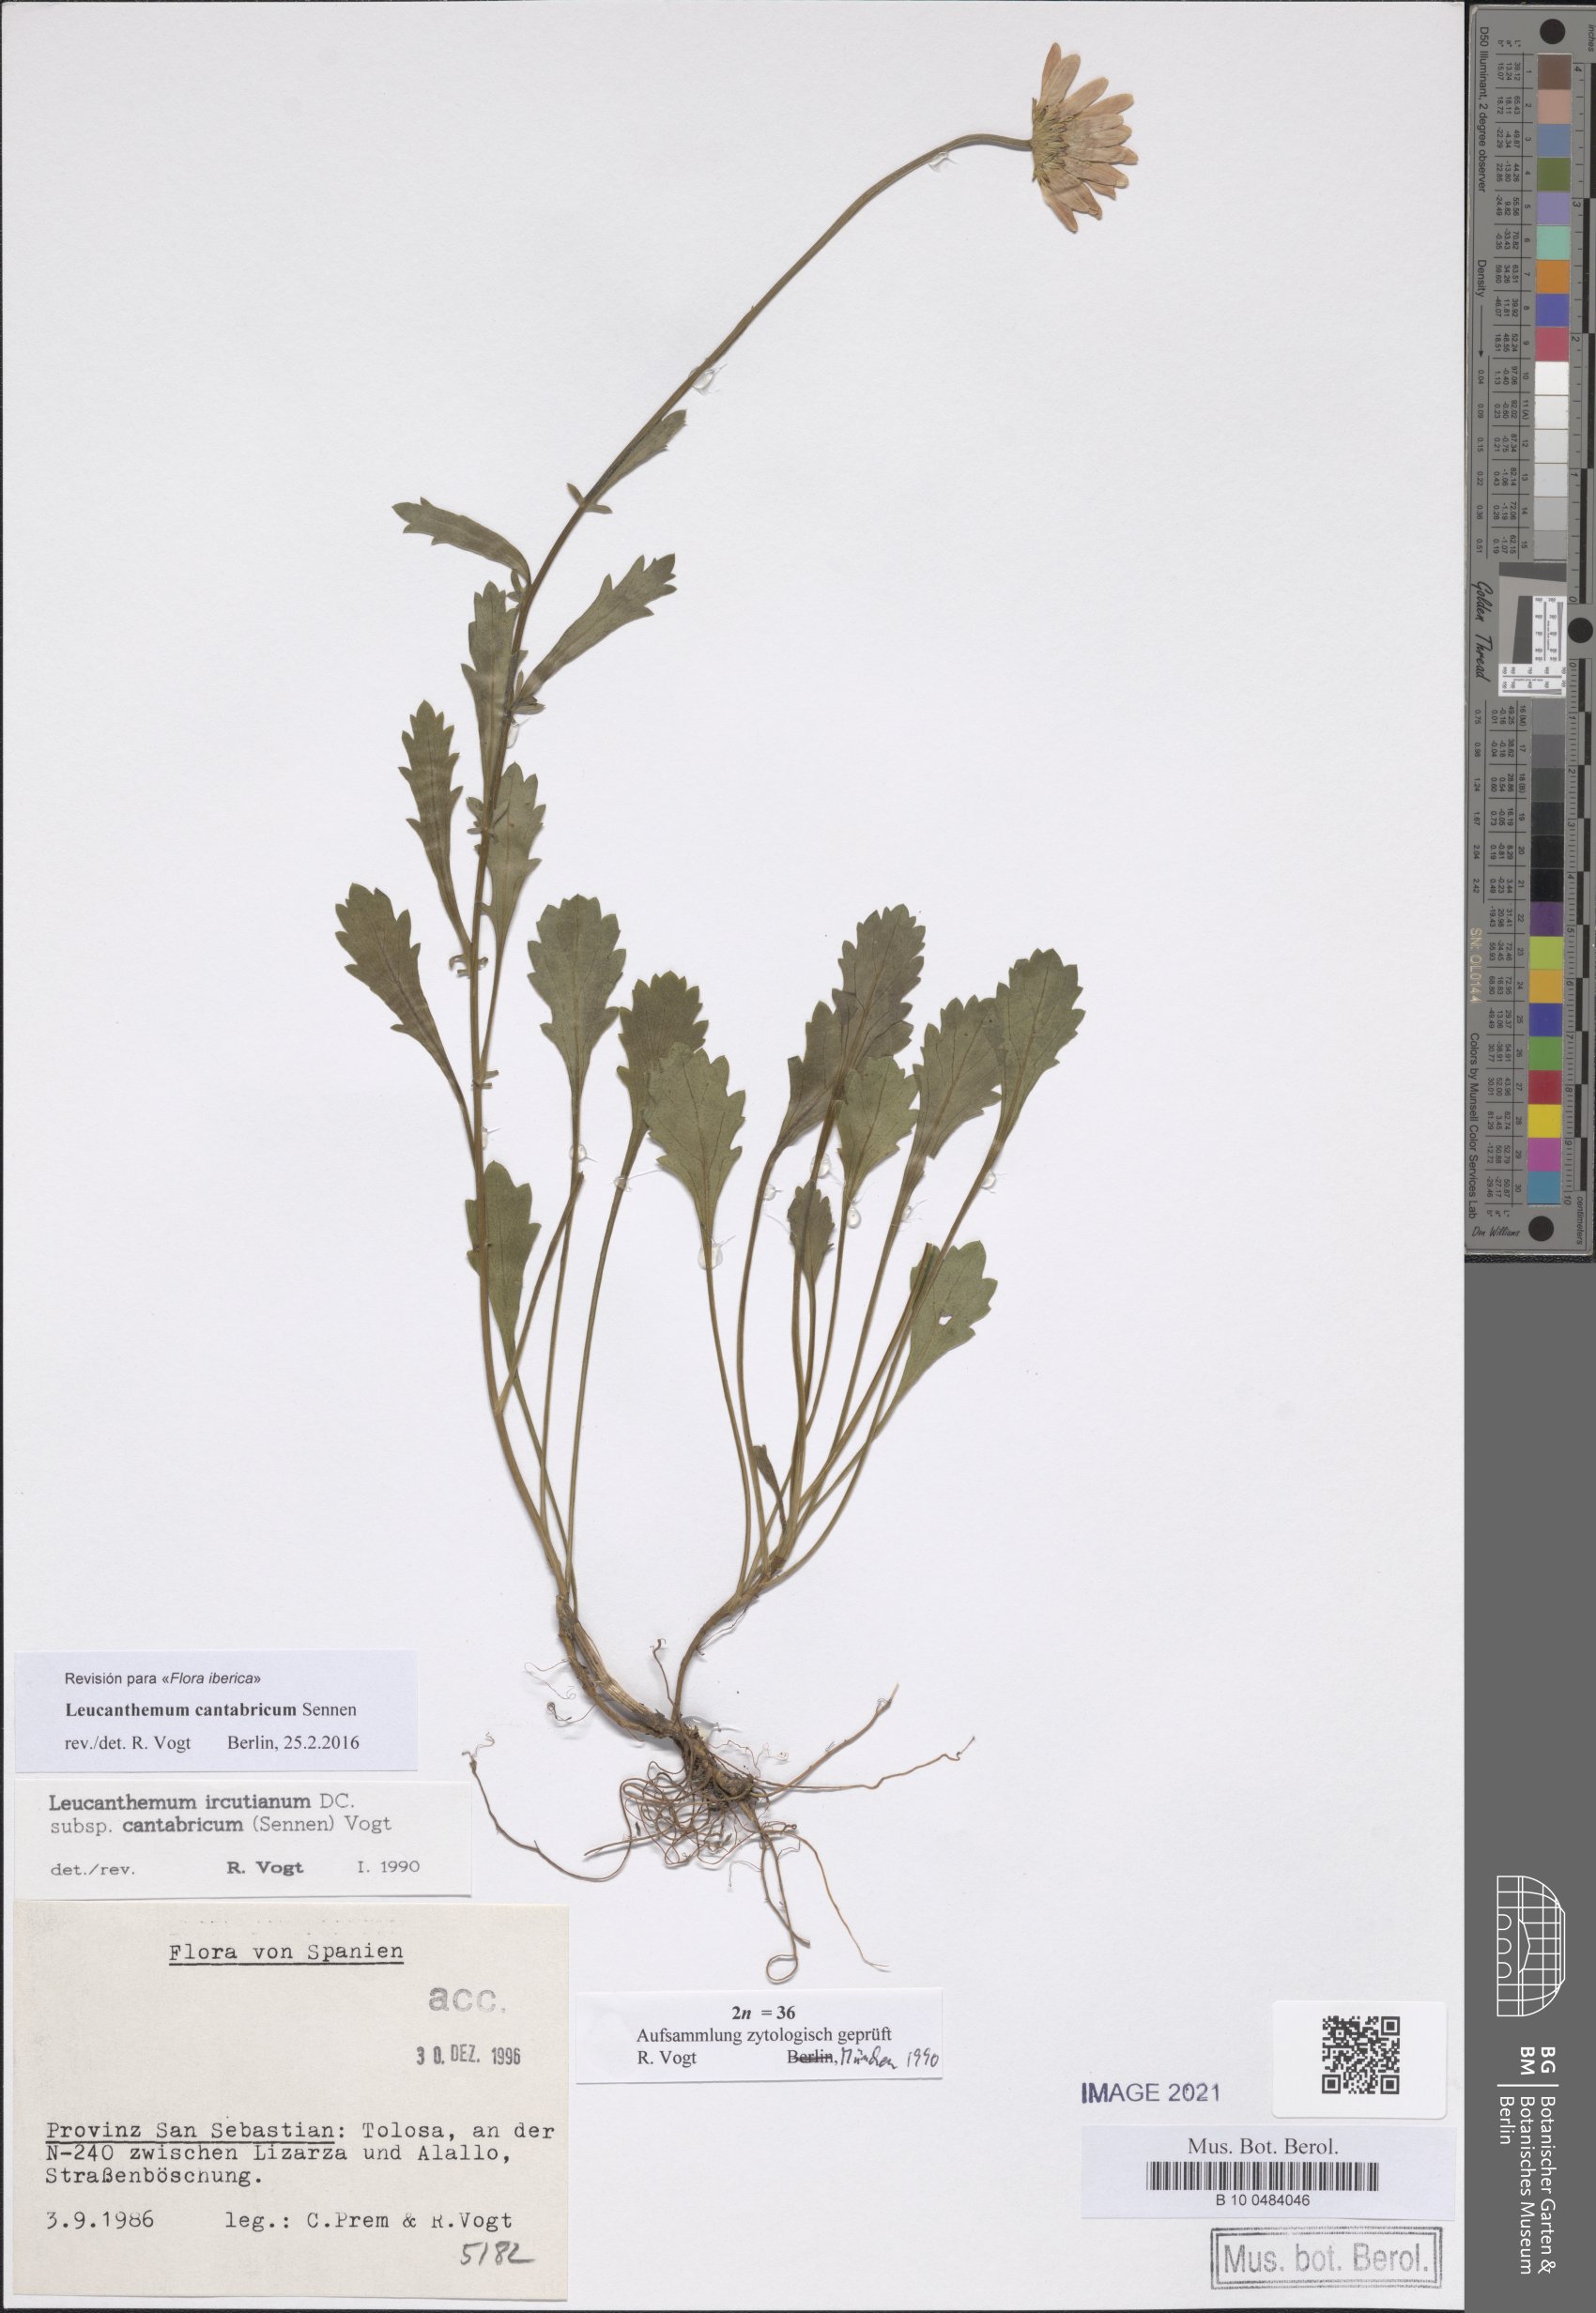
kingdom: Plantae
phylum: Tracheophyta
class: Magnoliopsida
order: Asterales
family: Asteraceae
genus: Leucanthemum
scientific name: Leucanthemum cantabricum
